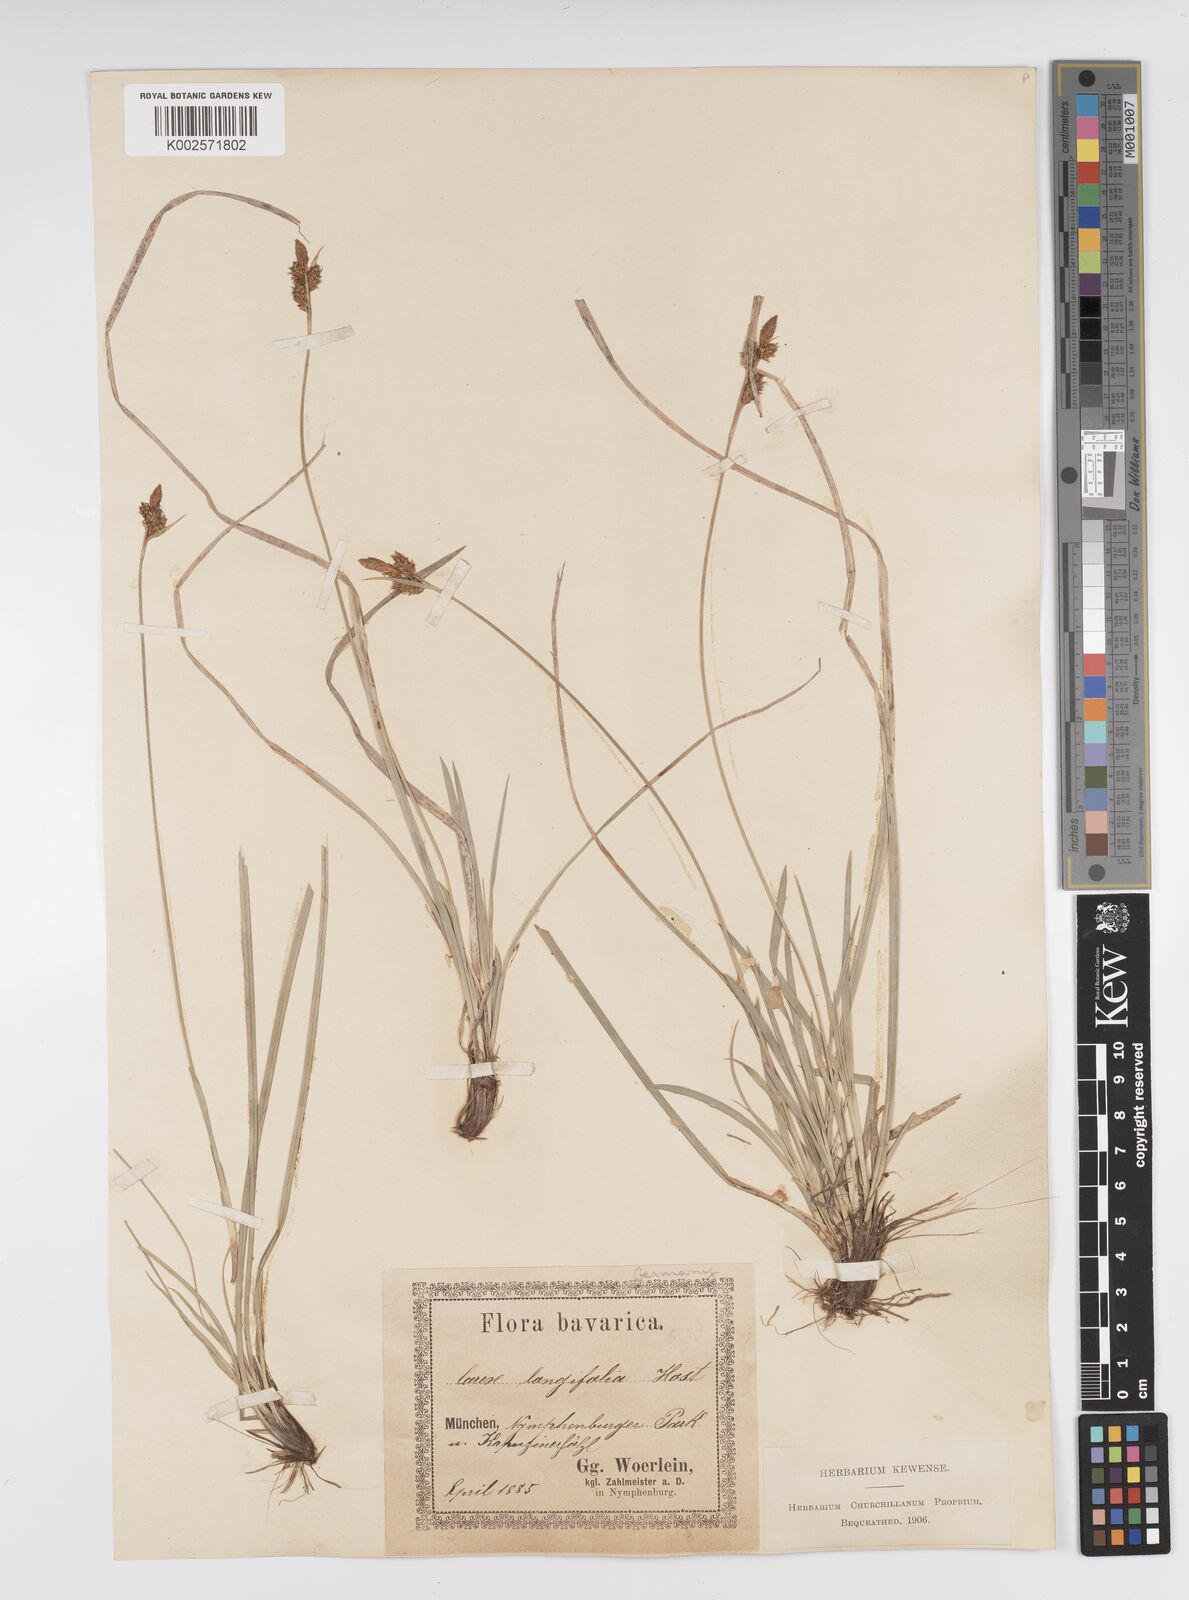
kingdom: Plantae
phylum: Tracheophyta
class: Liliopsida
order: Poales
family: Cyperaceae
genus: Carex
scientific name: Carex umbrosa
